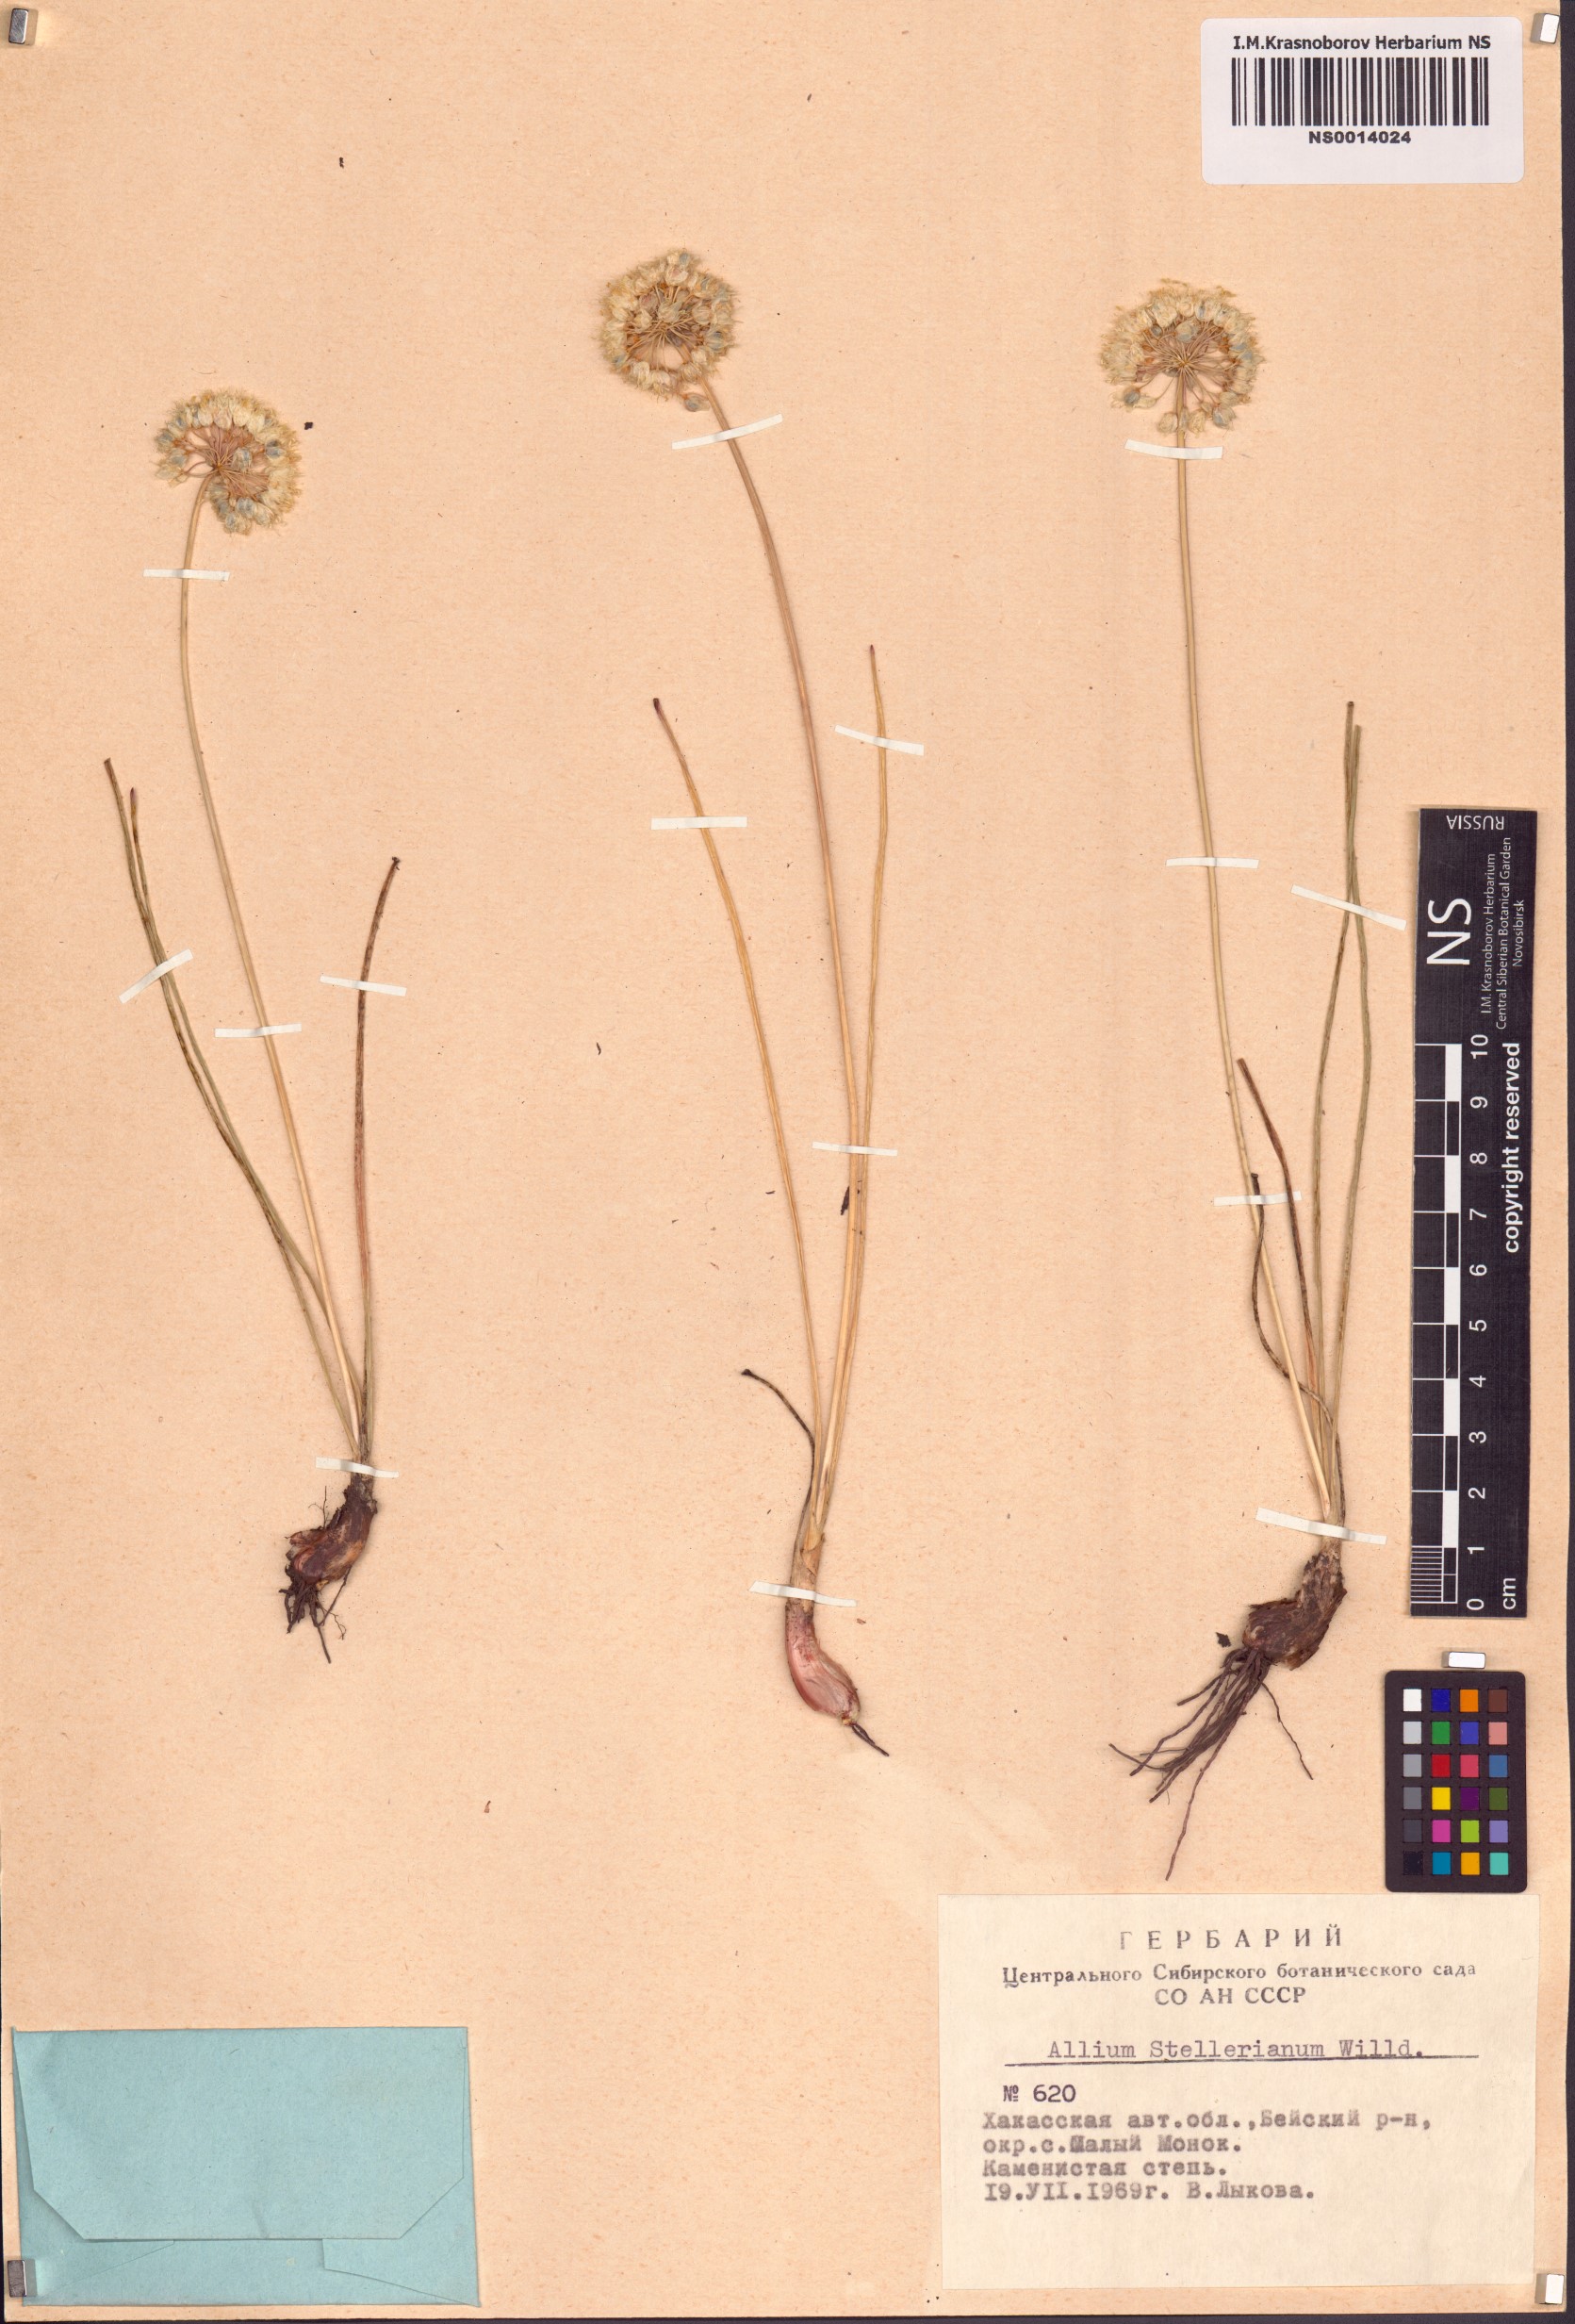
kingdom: Plantae
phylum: Tracheophyta
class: Liliopsida
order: Asparagales
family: Amaryllidaceae
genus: Allium
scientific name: Allium stellerianum
